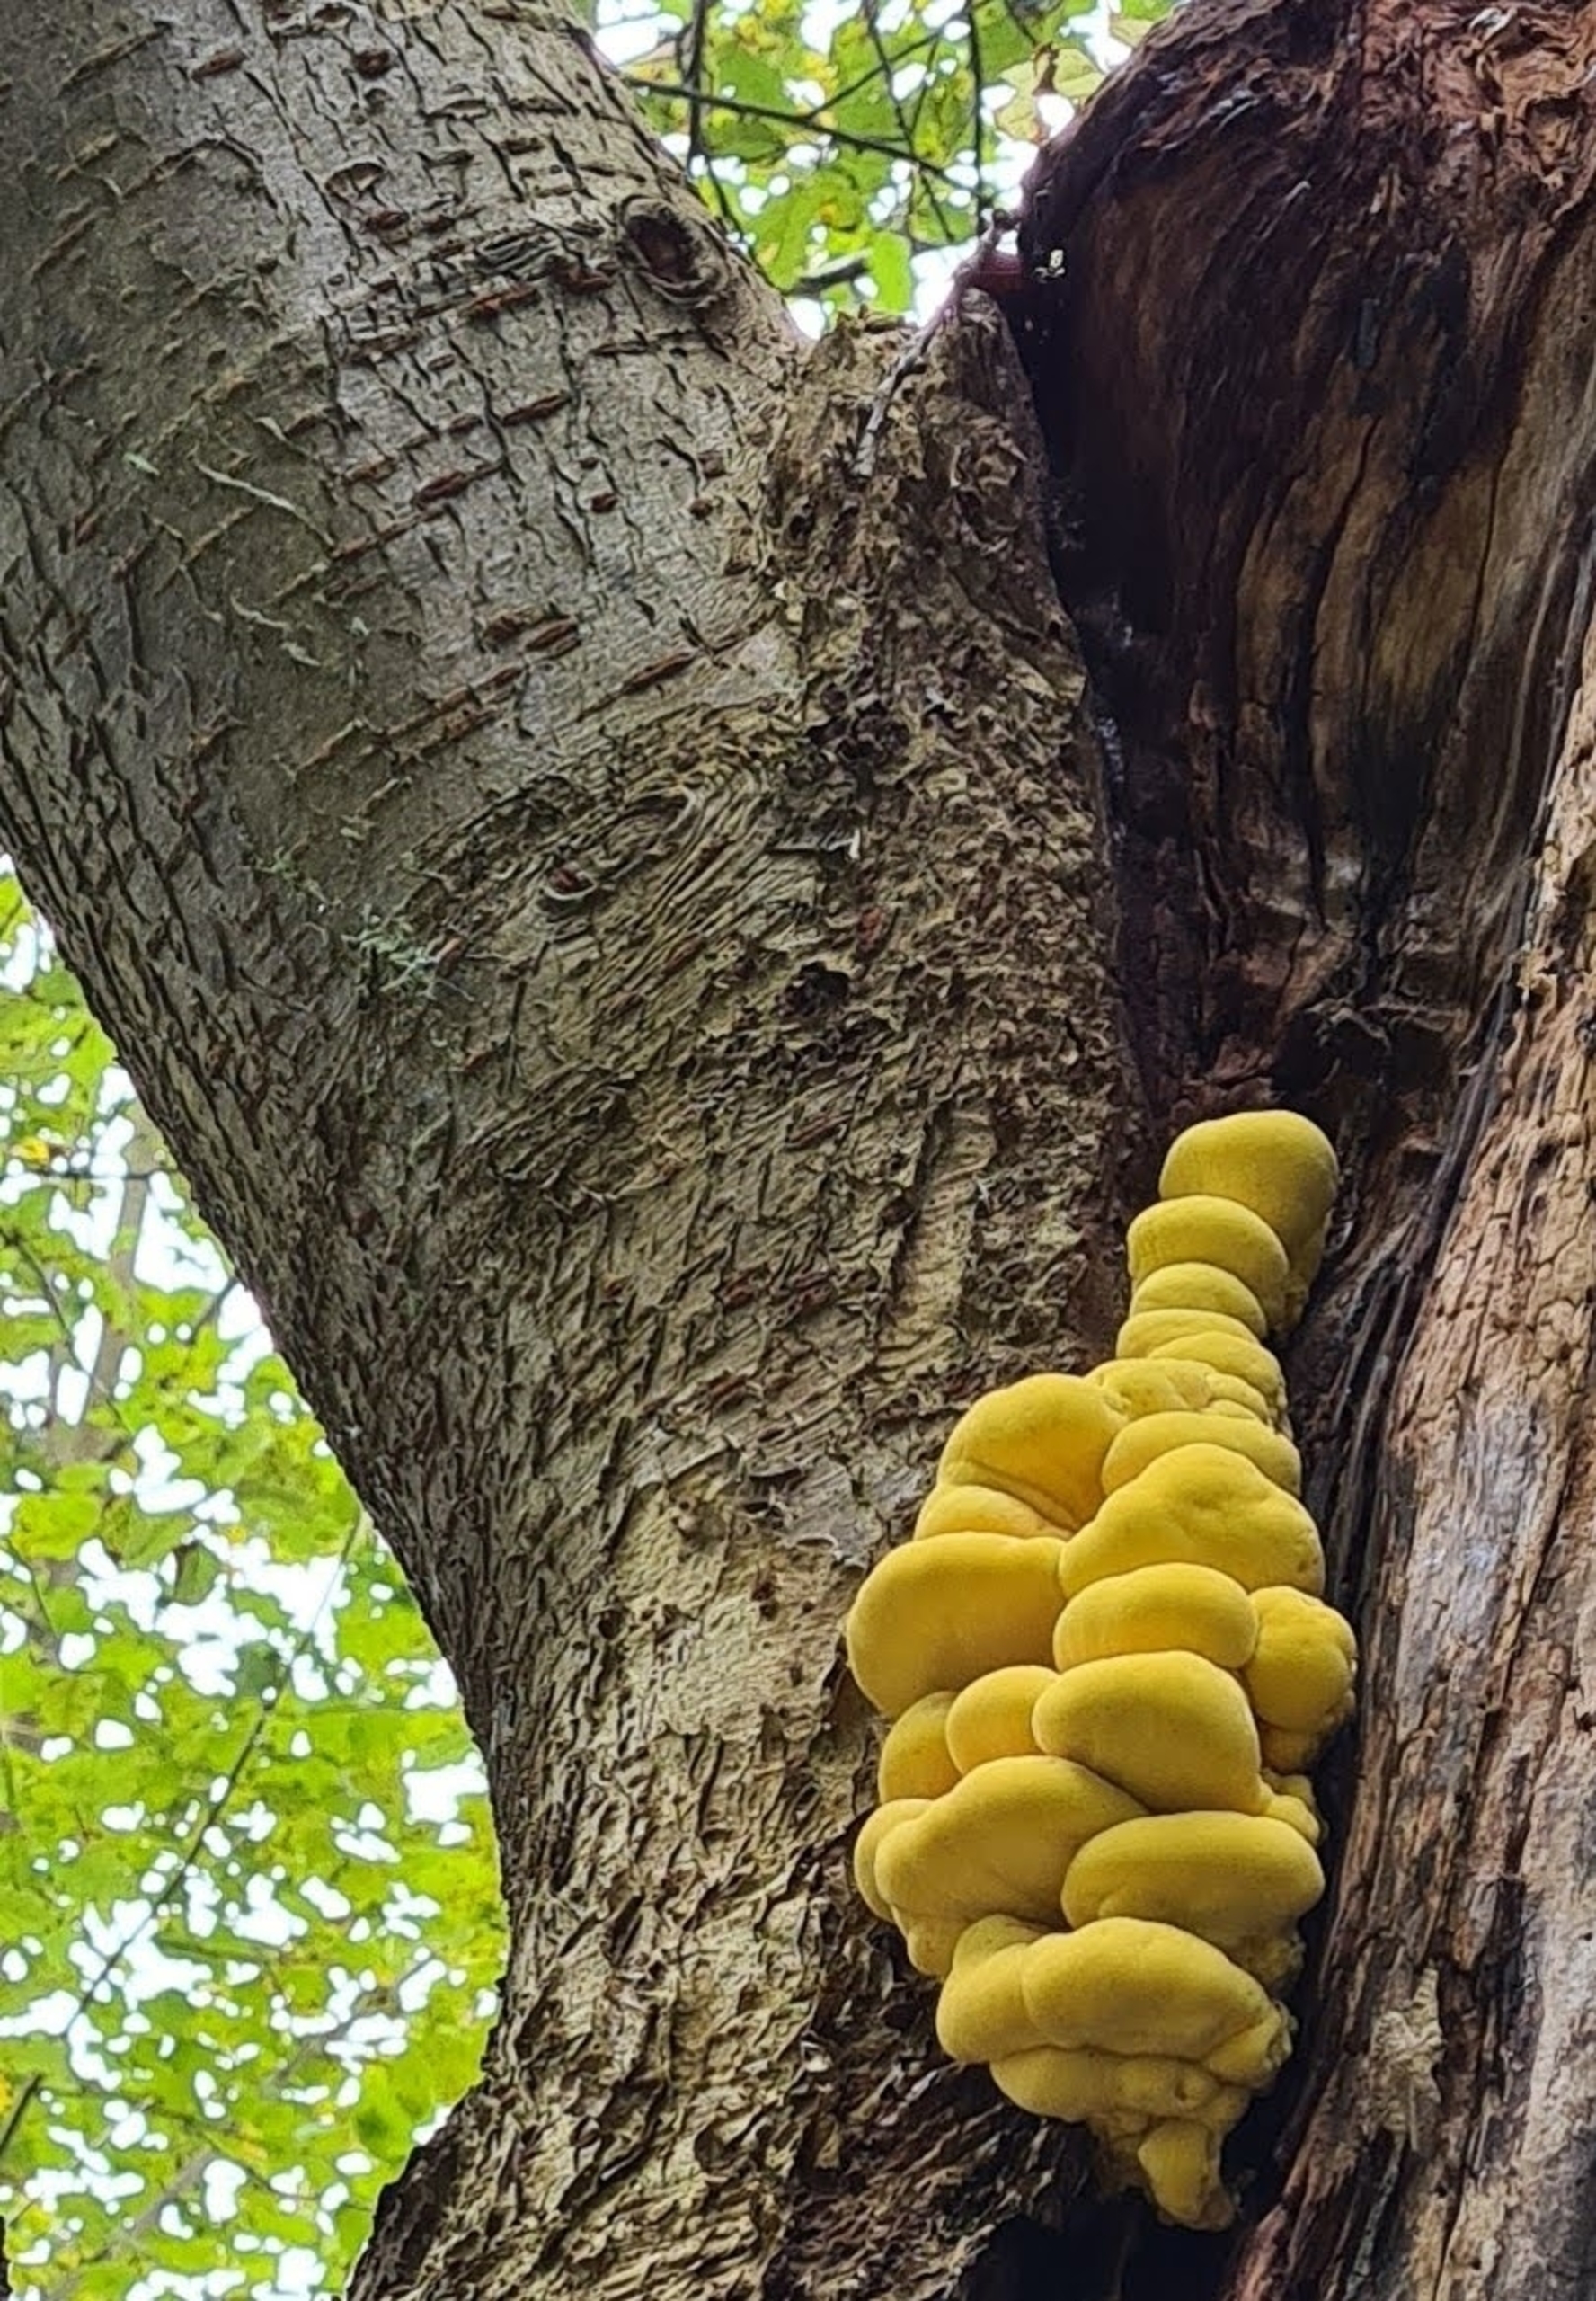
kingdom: Fungi
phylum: Basidiomycota
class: Agaricomycetes
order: Polyporales
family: Laetiporaceae
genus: Laetiporus
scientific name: Laetiporus sulphureus
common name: Svovlporesvamp
